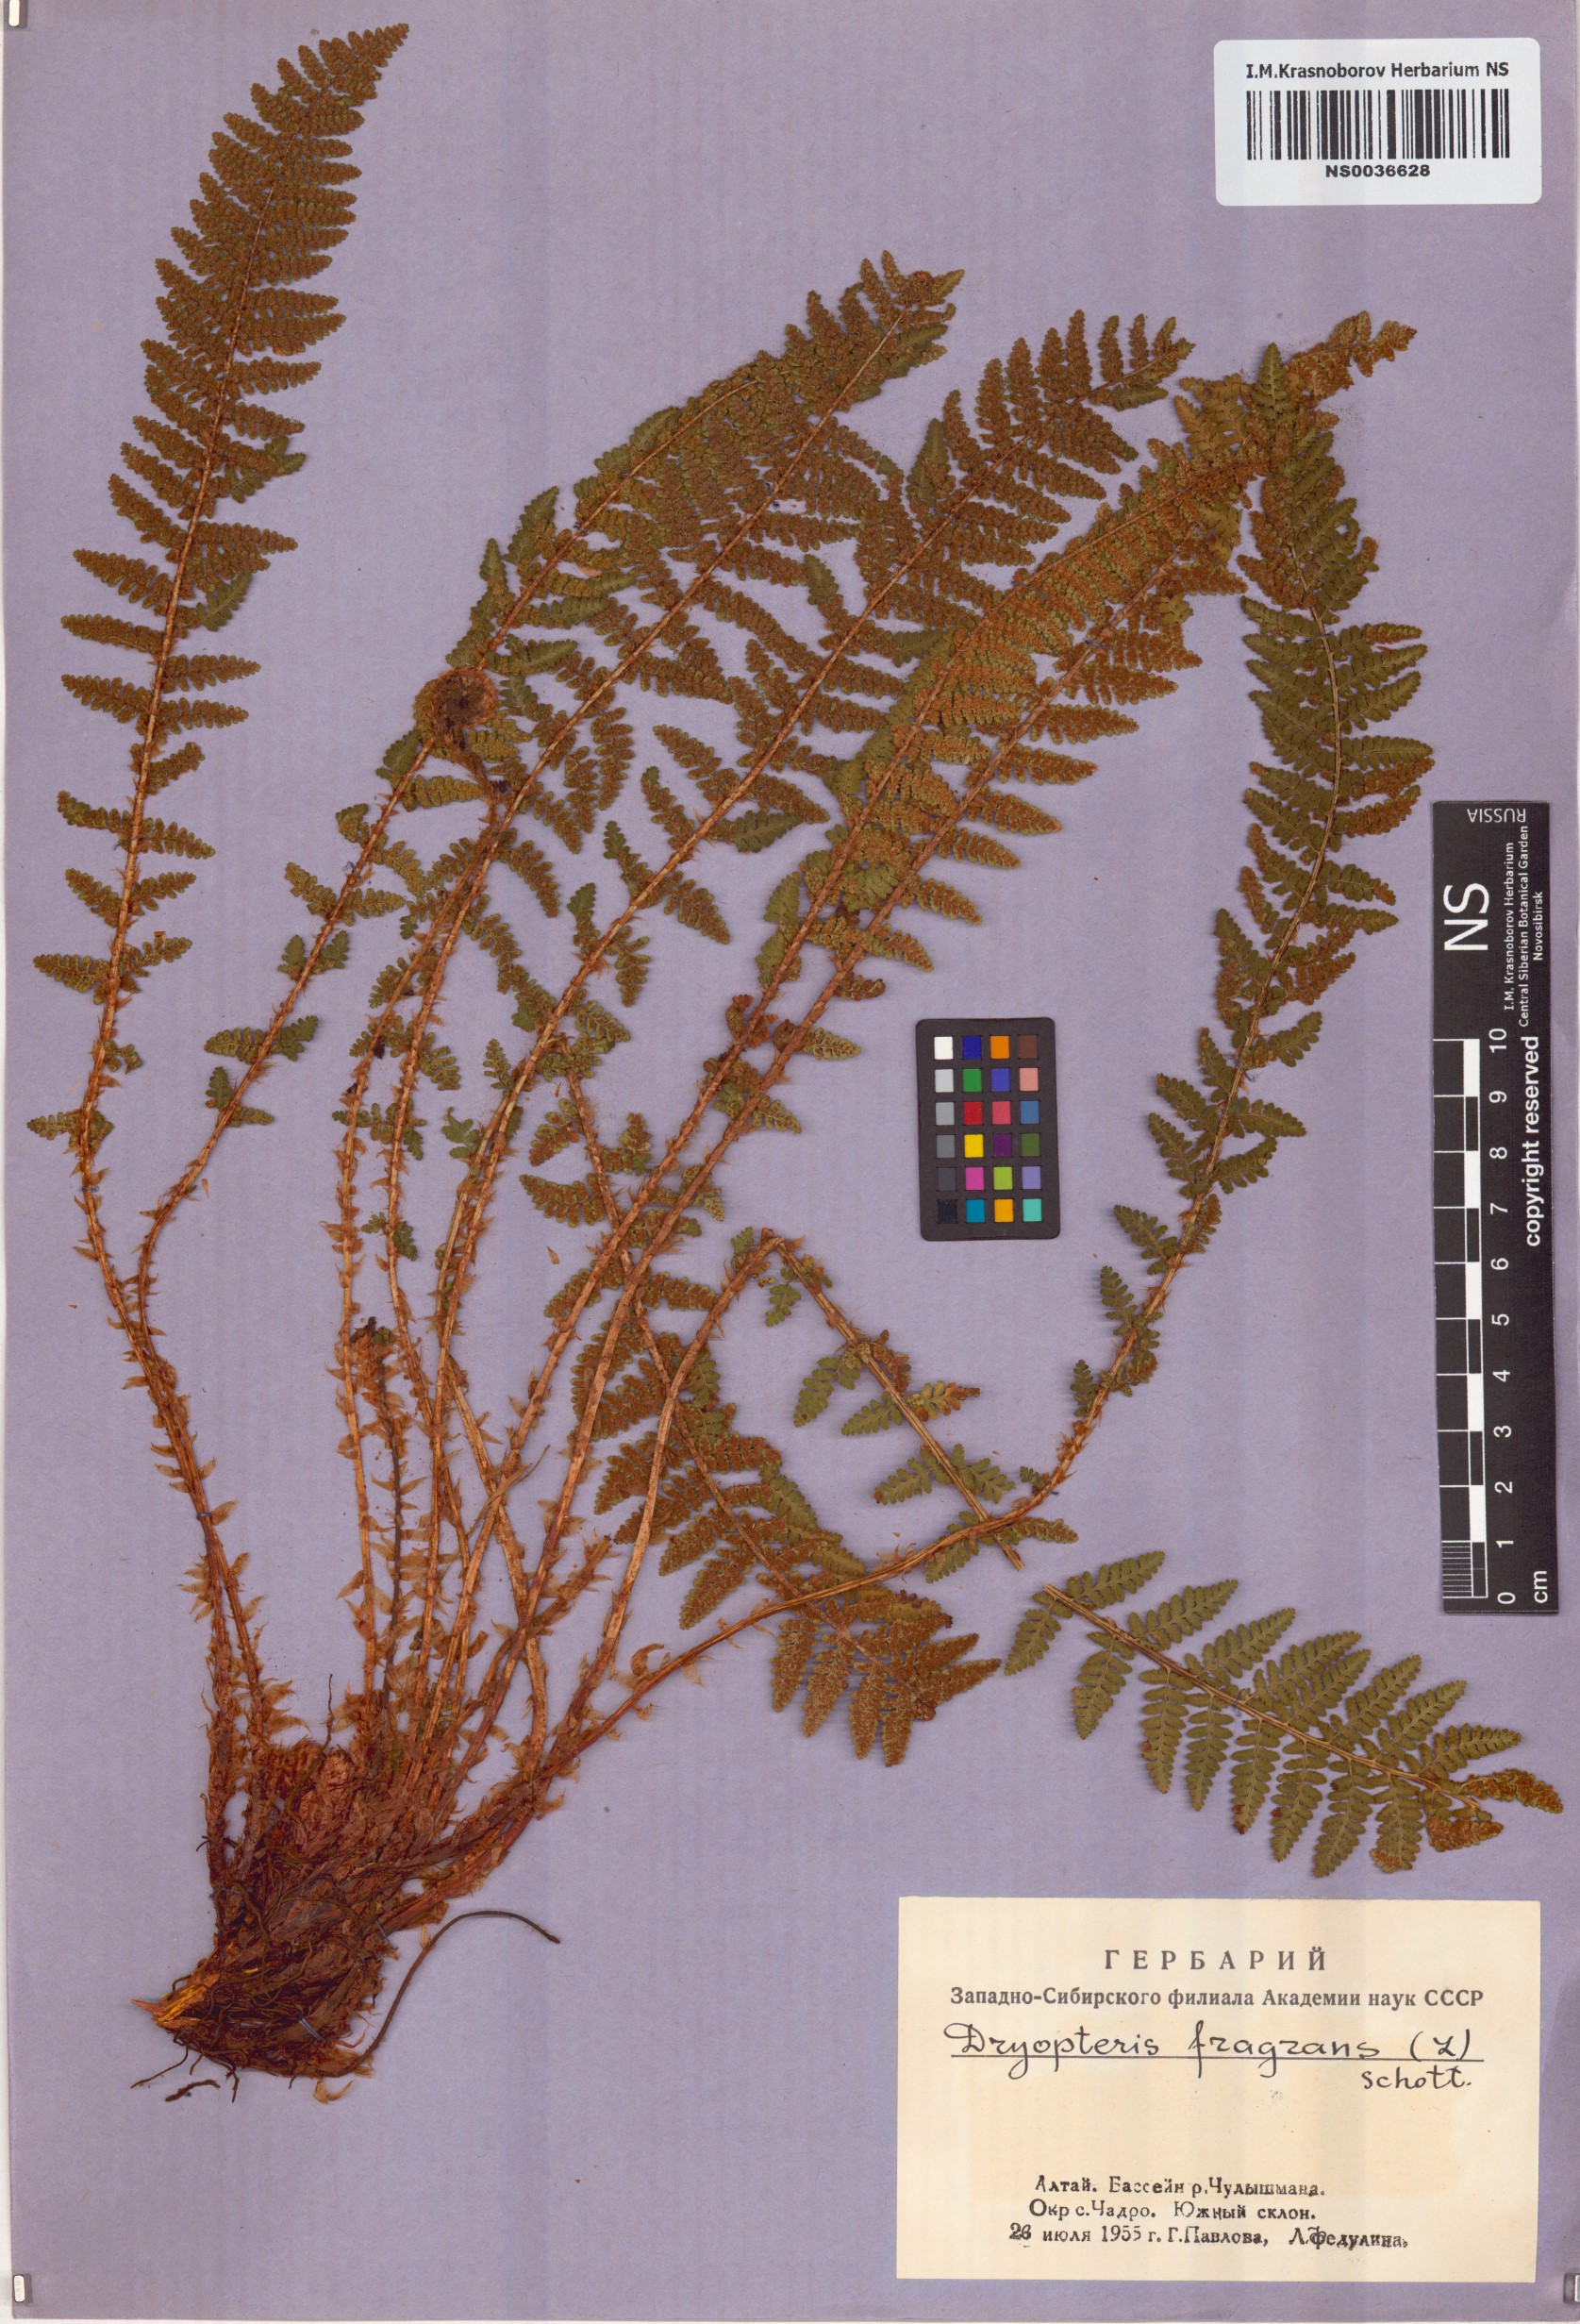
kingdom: Plantae
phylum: Tracheophyta
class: Polypodiopsida
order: Polypodiales
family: Dryopteridaceae
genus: Dryopteris
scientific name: Dryopteris fragrans
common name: Fragrant wood fern
